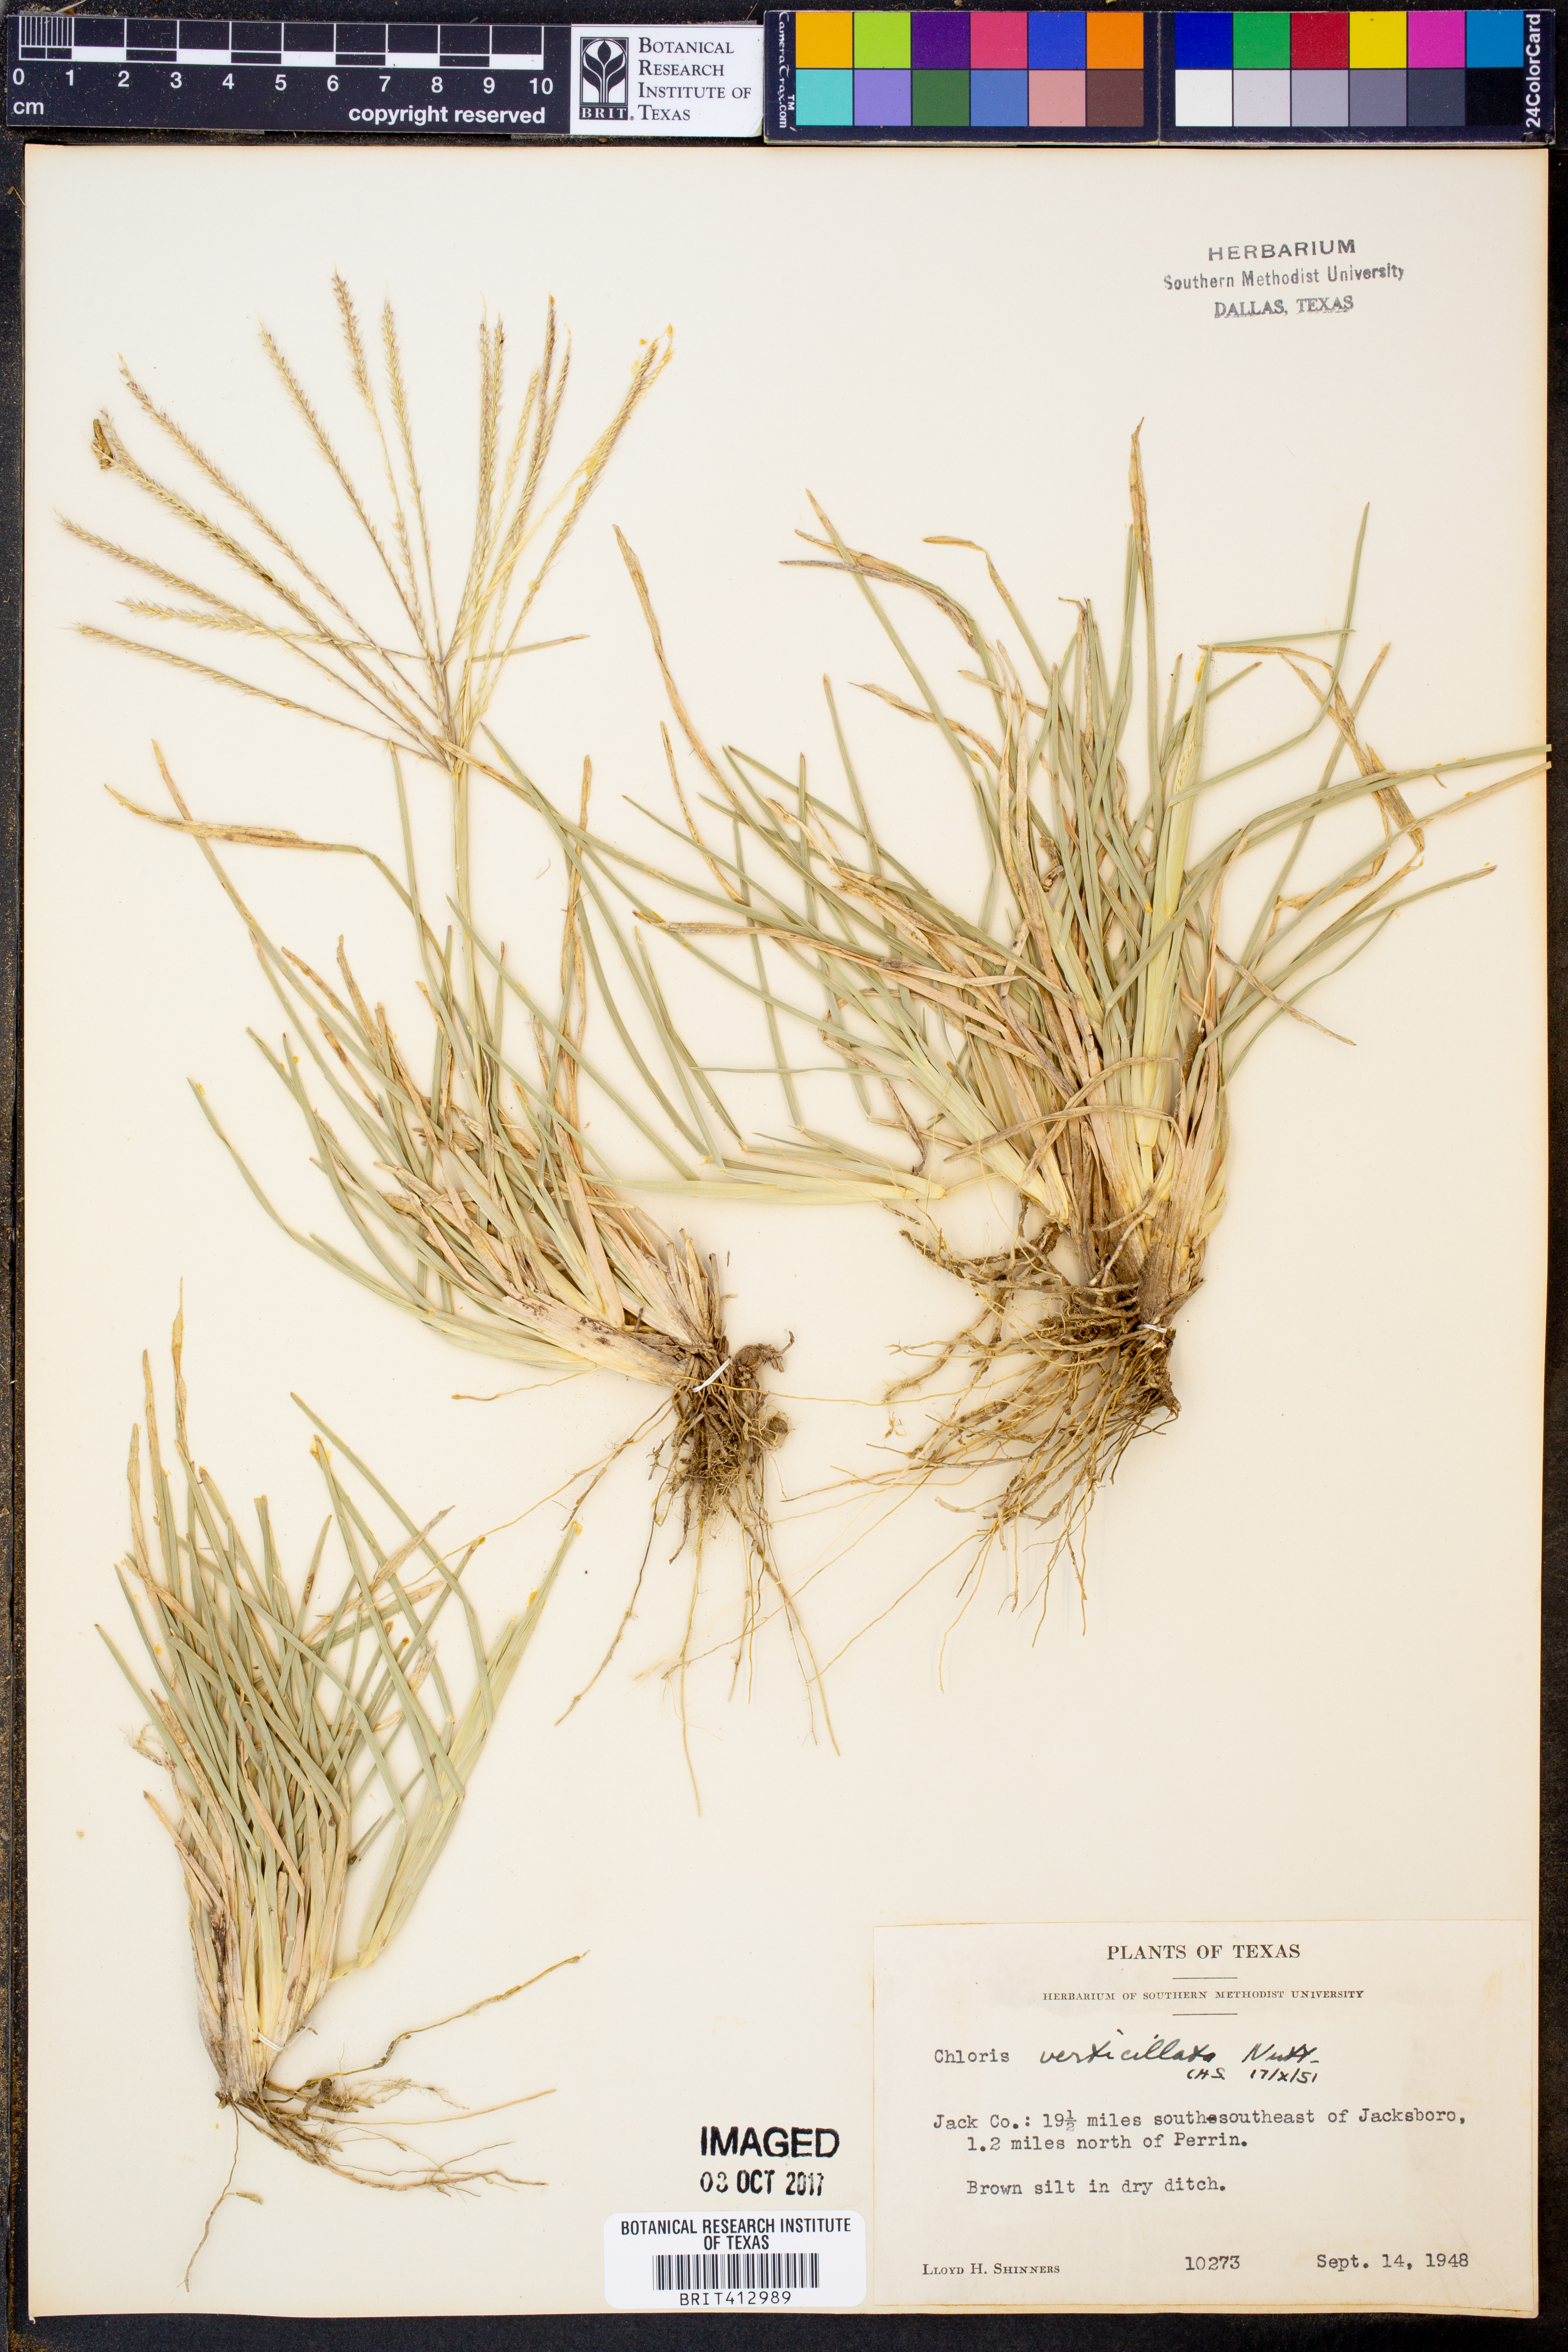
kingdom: Plantae
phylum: Tracheophyta
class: Liliopsida
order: Poales
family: Poaceae
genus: Chloris
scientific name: Chloris verticillata
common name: Tumble windmill grass
